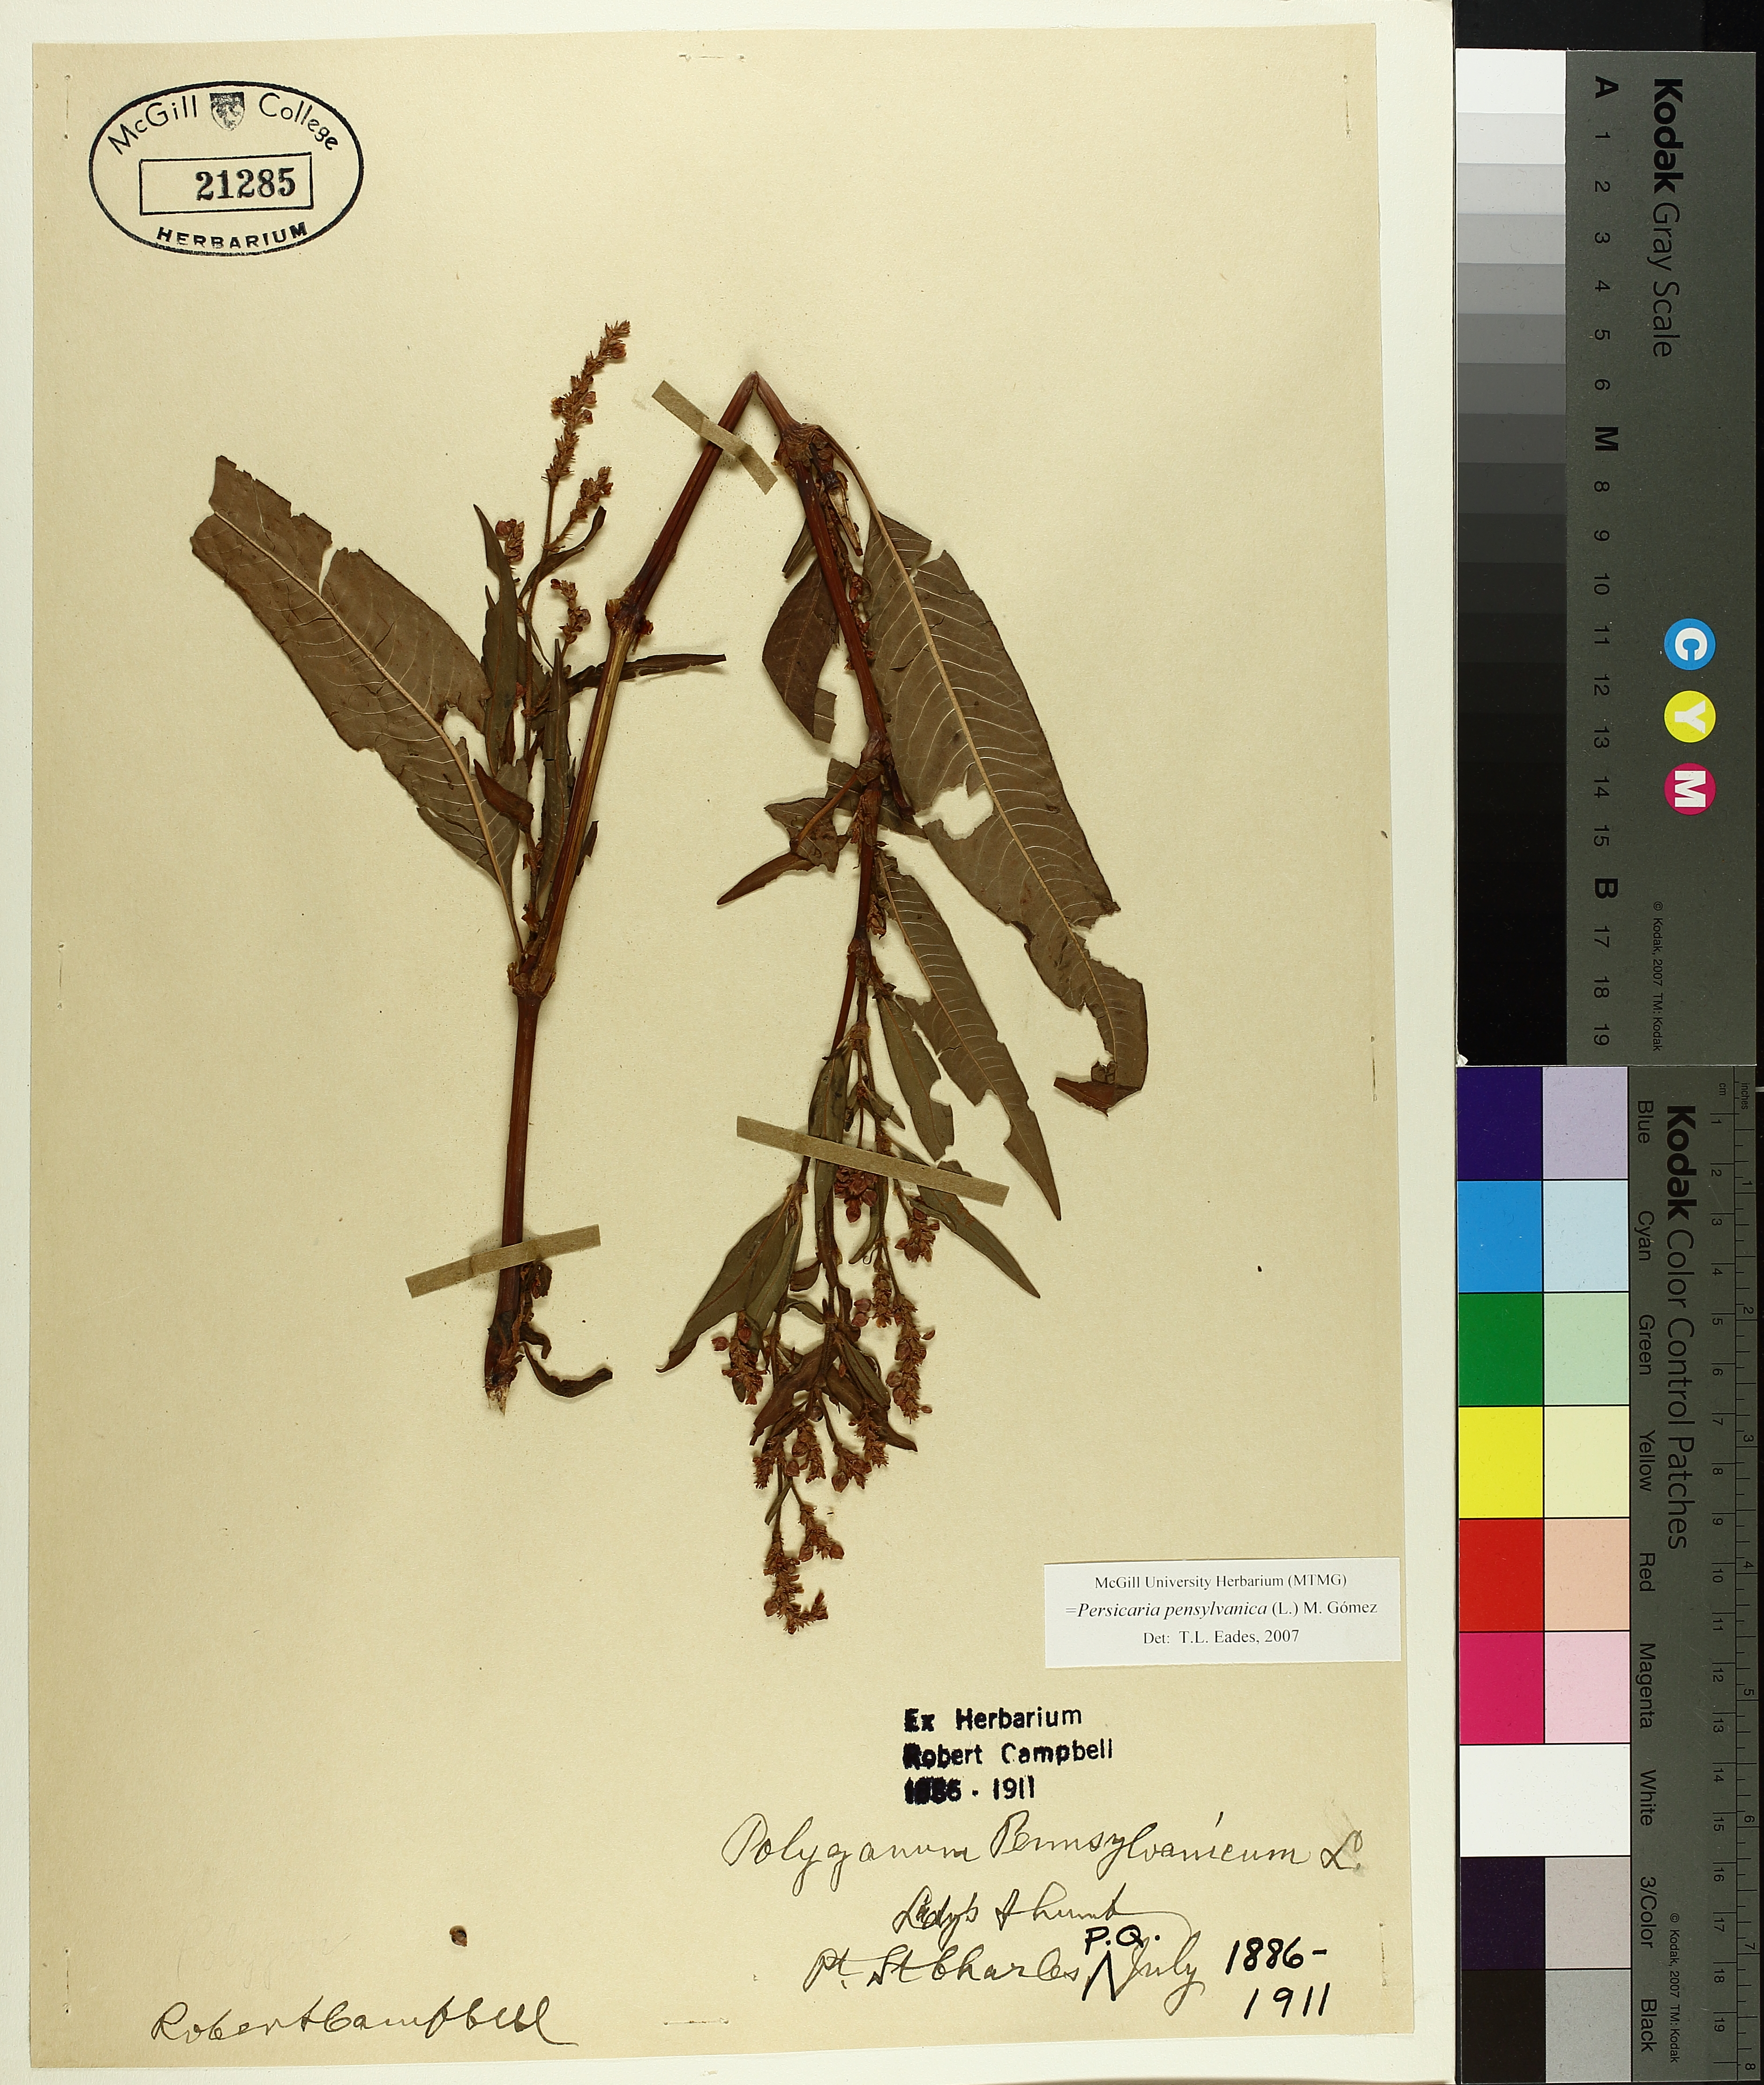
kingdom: Plantae
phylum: Tracheophyta
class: Magnoliopsida
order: Caryophyllales
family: Polygonaceae
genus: Persicaria
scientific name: Persicaria bungeana
